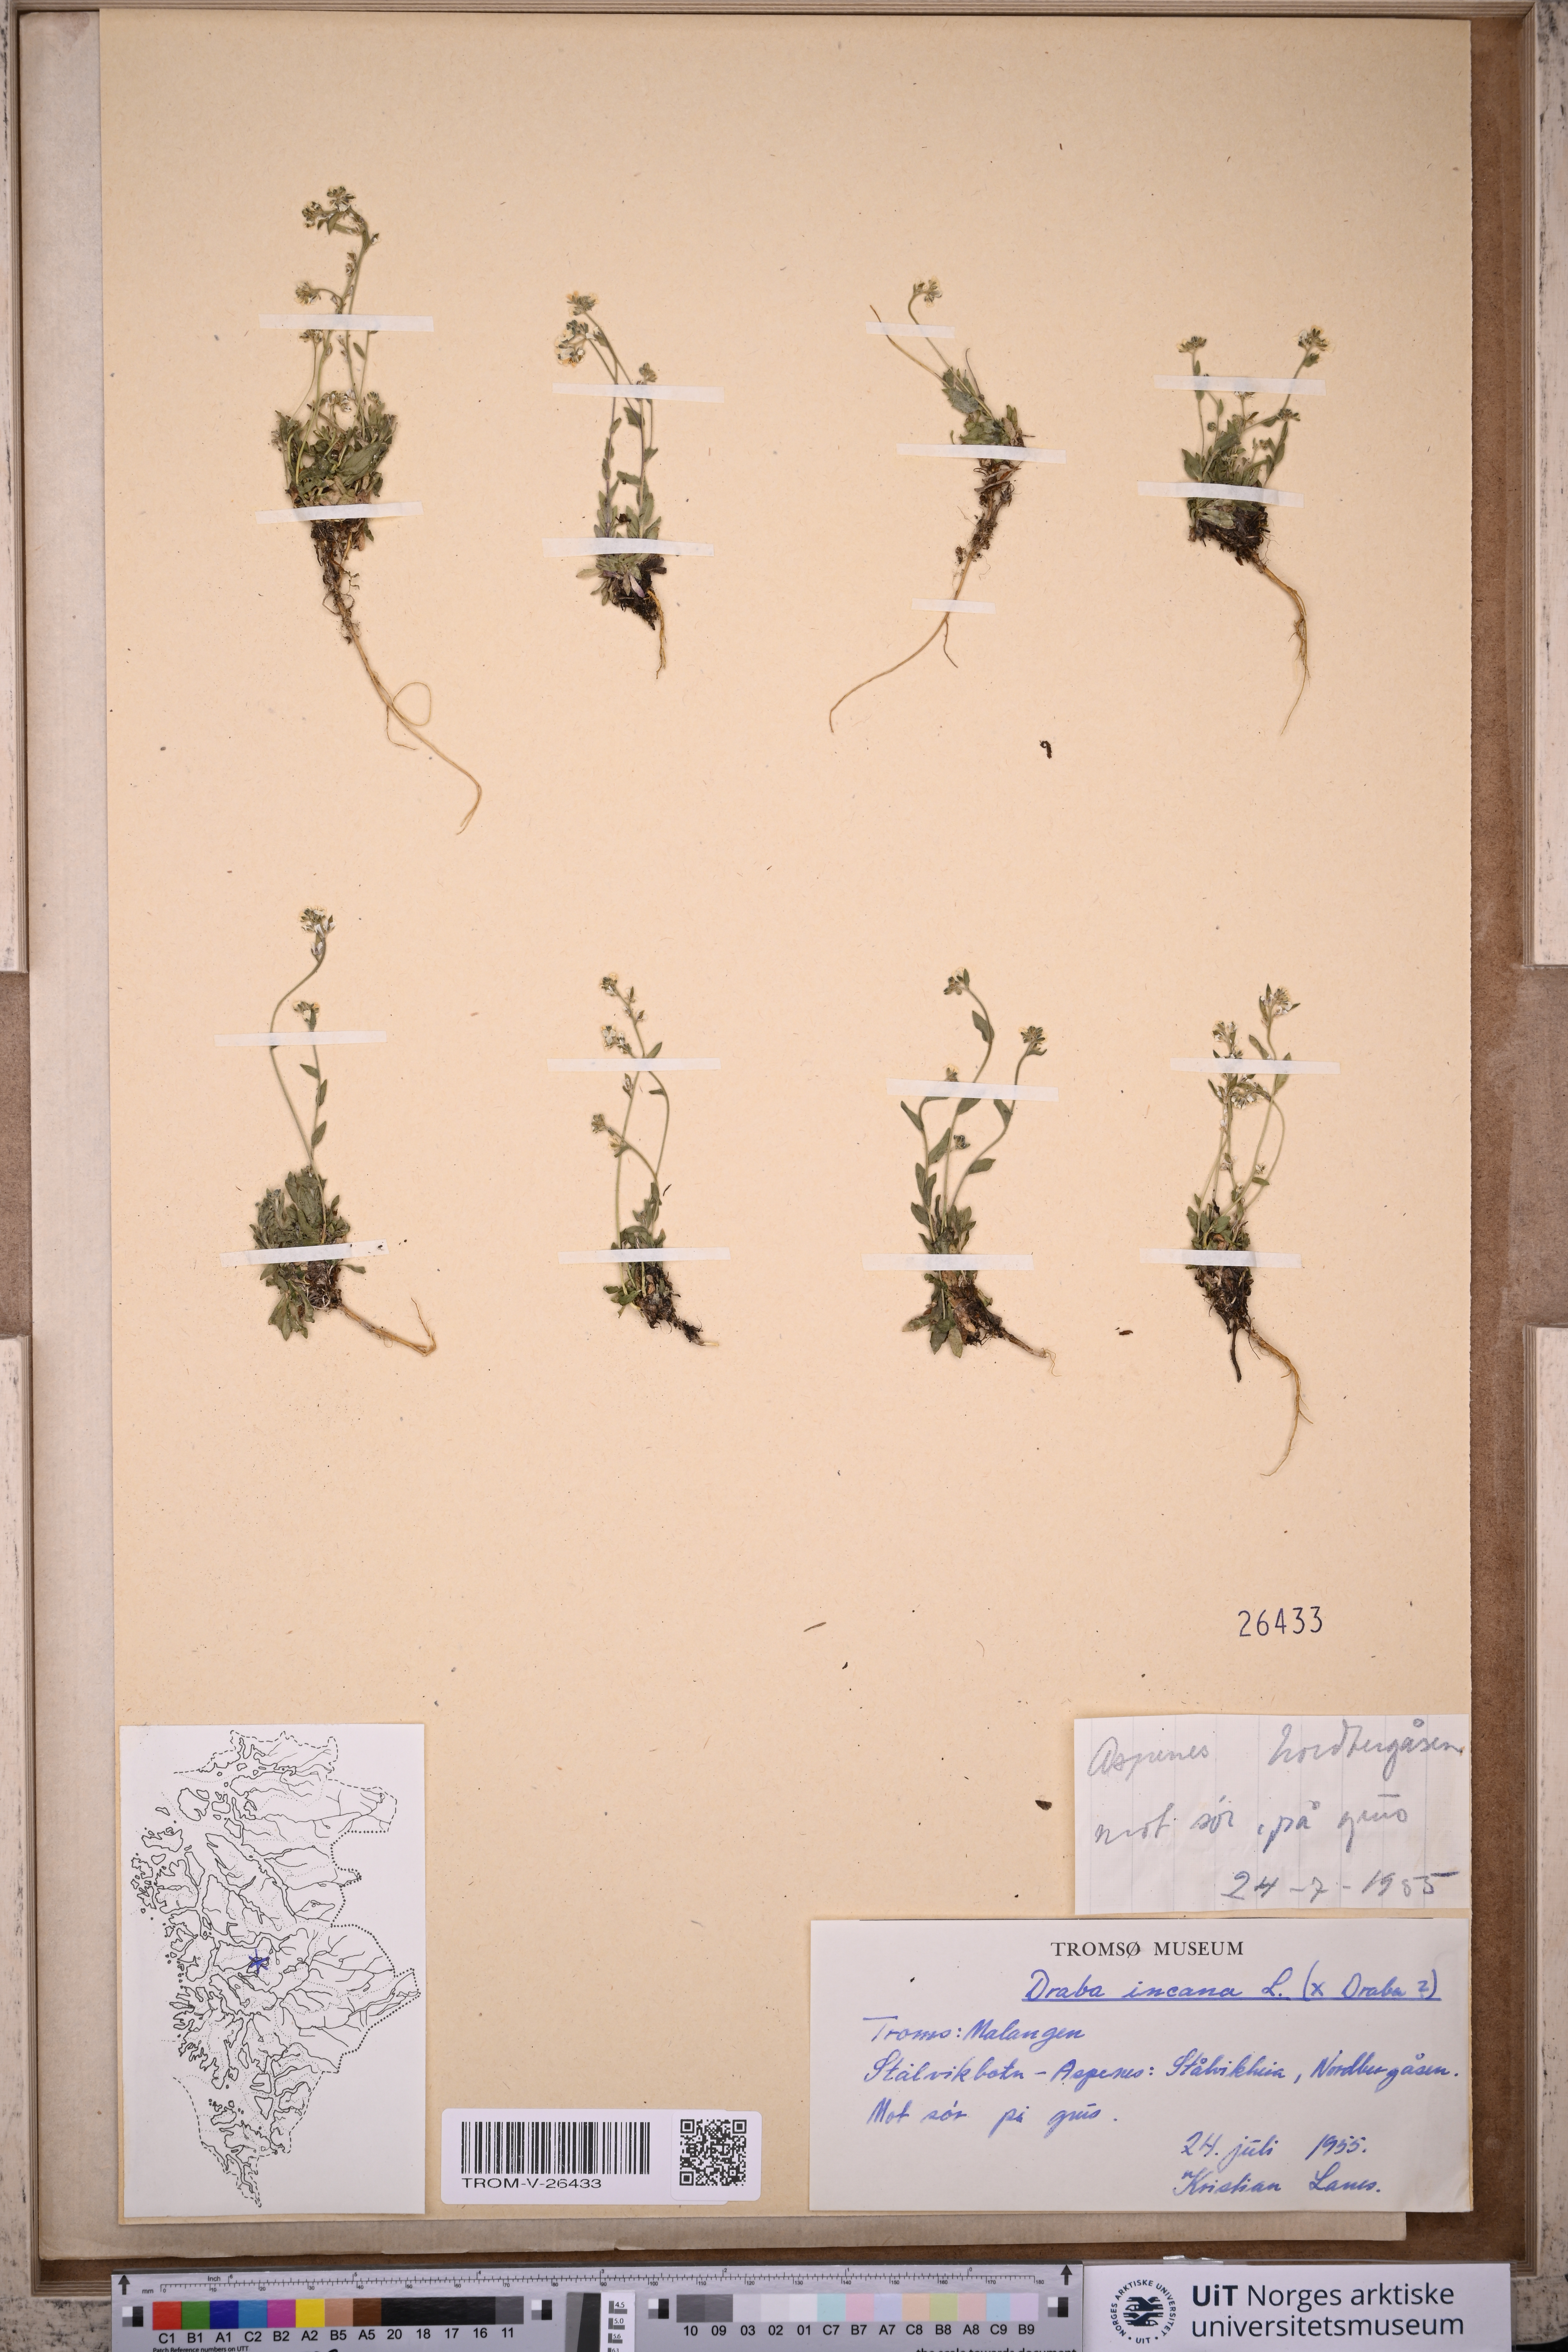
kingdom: Plantae
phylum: Tracheophyta
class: Magnoliopsida
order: Brassicales
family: Brassicaceae
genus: Draba
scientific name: Draba incana
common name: Hoary whitlow-grass
